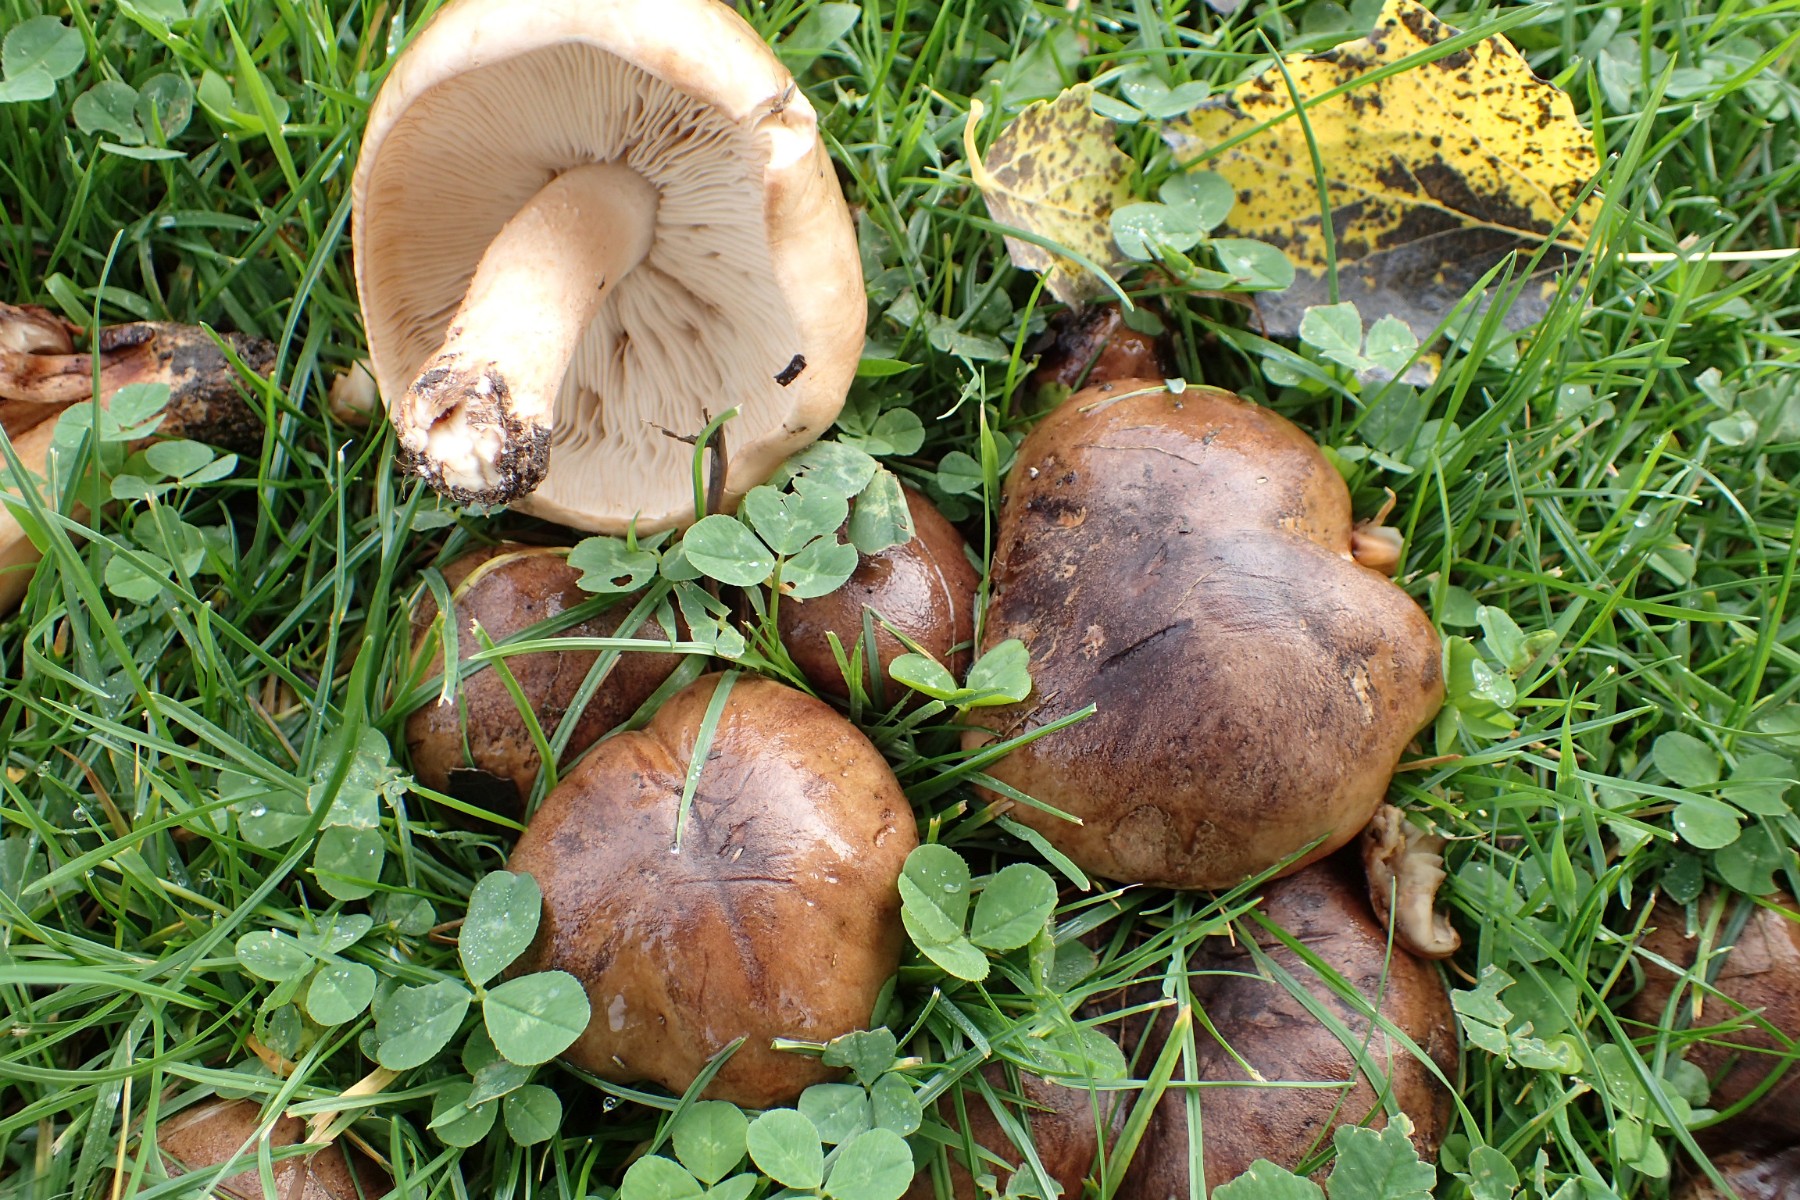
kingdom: Fungi
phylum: Basidiomycota
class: Agaricomycetes
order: Agaricales
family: Tricholomataceae
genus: Tricholoma
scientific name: Tricholoma populinum
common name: poppel-ridderhat
